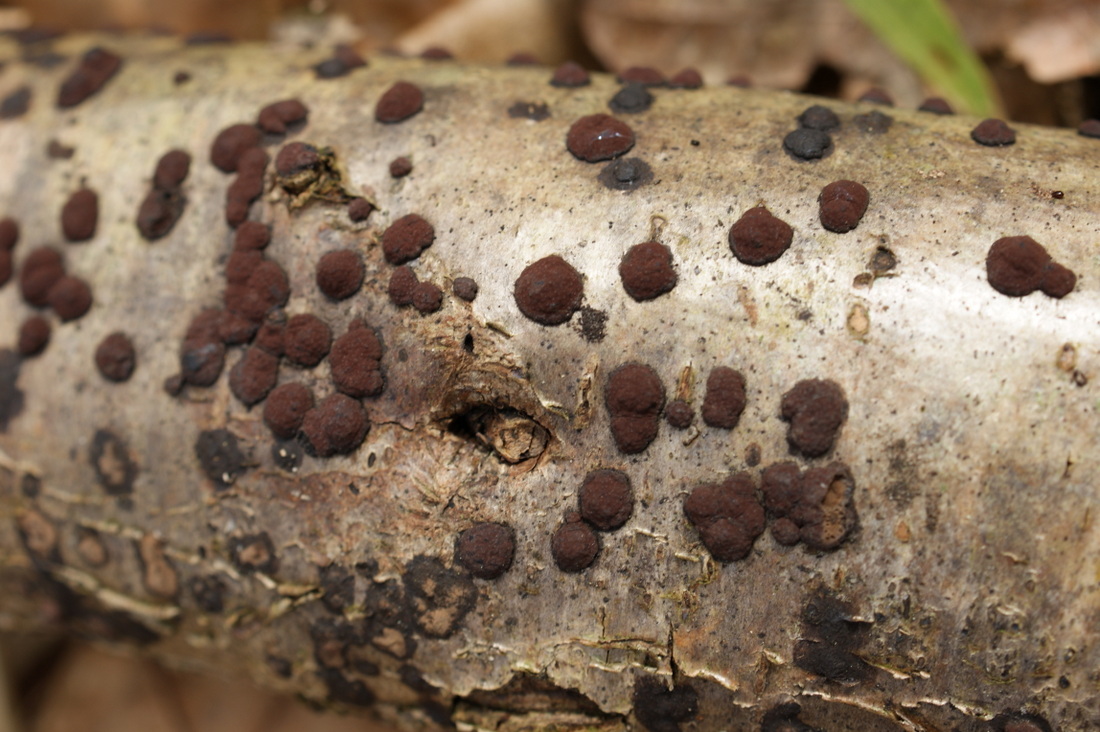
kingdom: Fungi
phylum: Ascomycota
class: Sordariomycetes
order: Xylariales
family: Hypoxylaceae
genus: Hypoxylon
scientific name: Hypoxylon fuscum
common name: kegleformet kulbær
